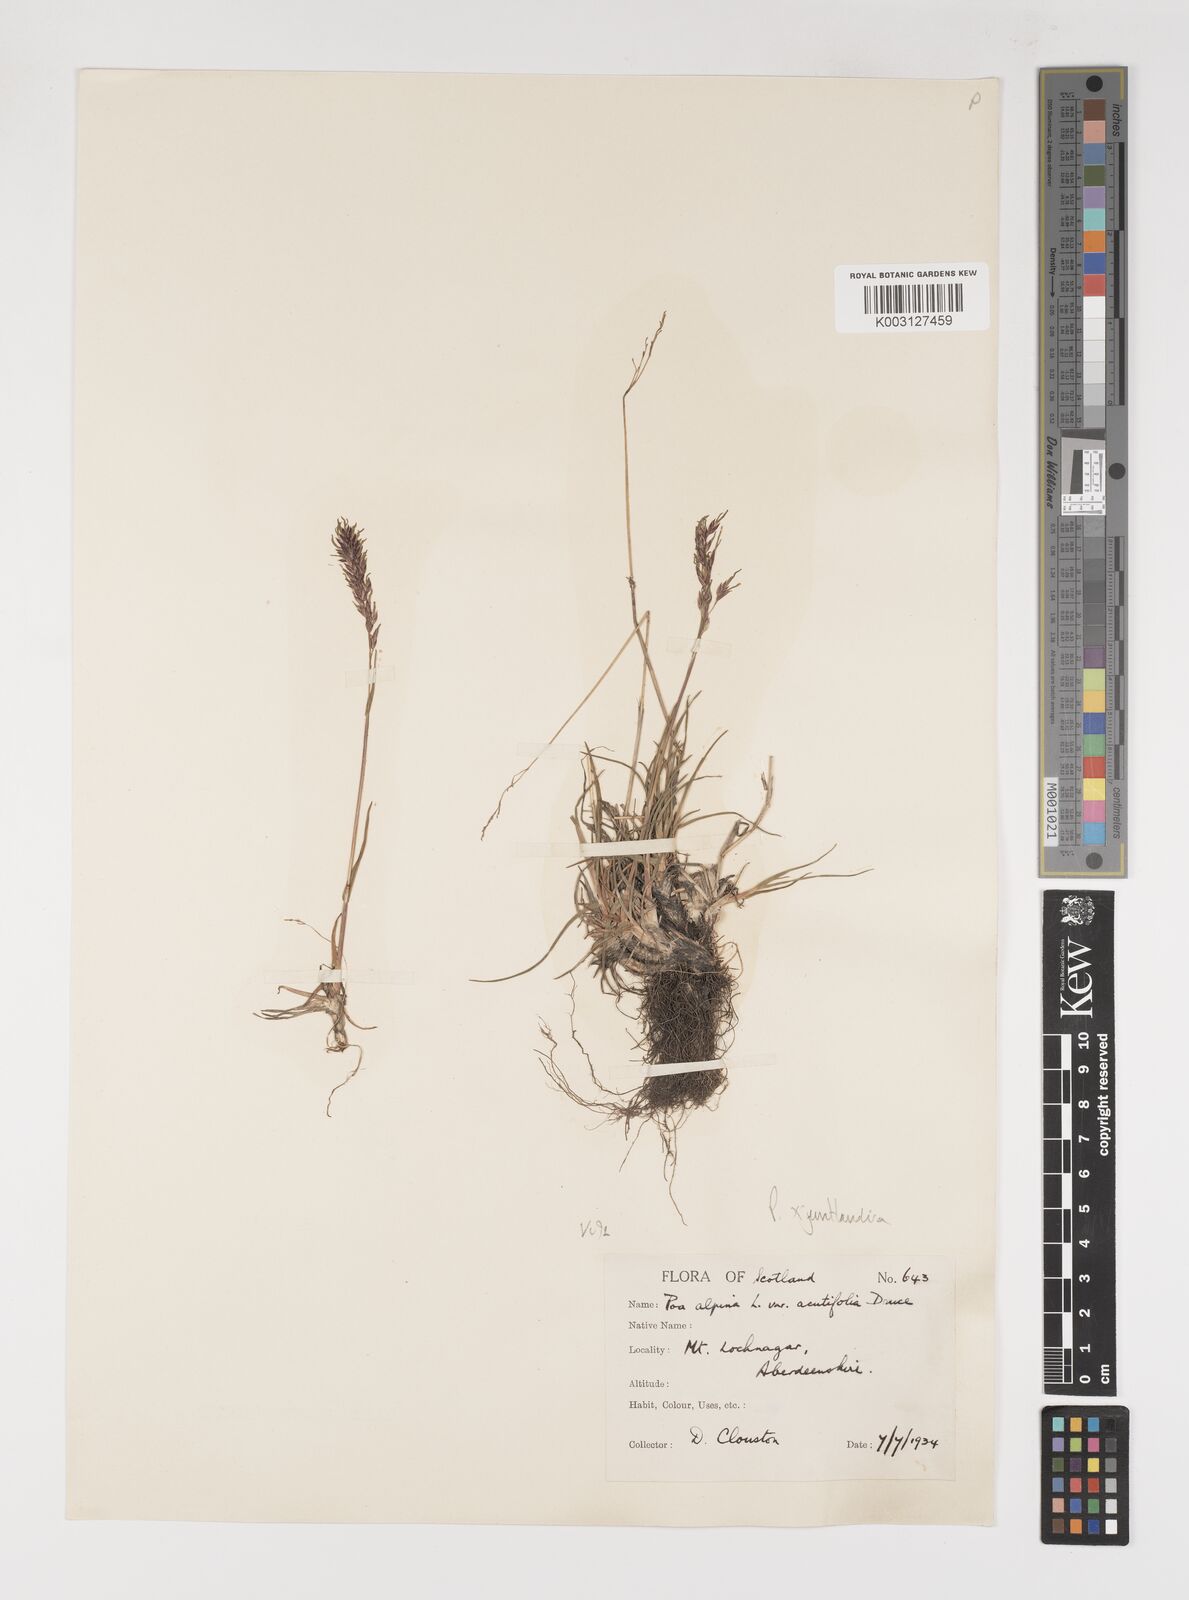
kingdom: Plantae
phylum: Tracheophyta
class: Liliopsida
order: Poales
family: Poaceae
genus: Poa
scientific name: Poa jemtlandica
